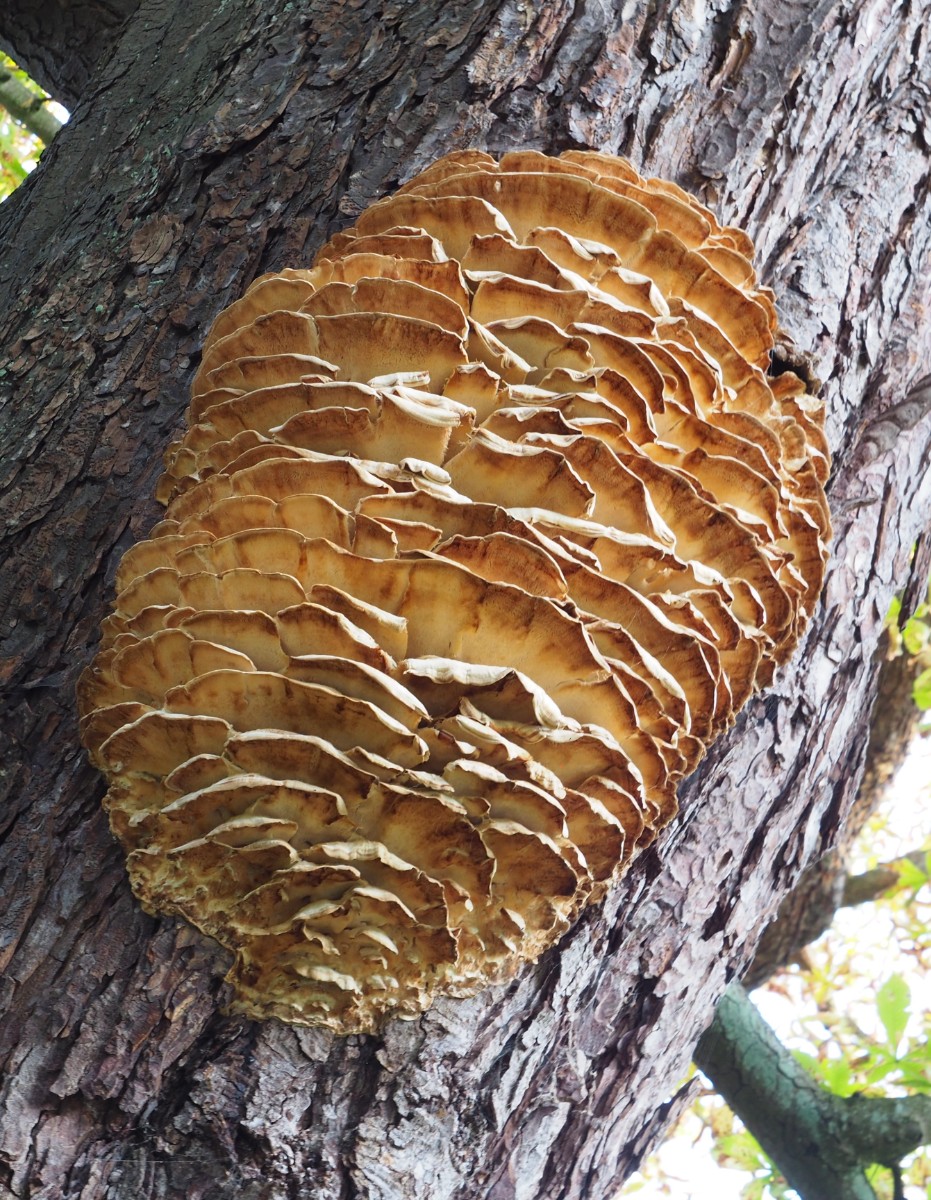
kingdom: Fungi
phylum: Basidiomycota
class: Agaricomycetes
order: Polyporales
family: Meruliaceae
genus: Climacodon
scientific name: Climacodon septentrionalis
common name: kæmpepigsvamp
